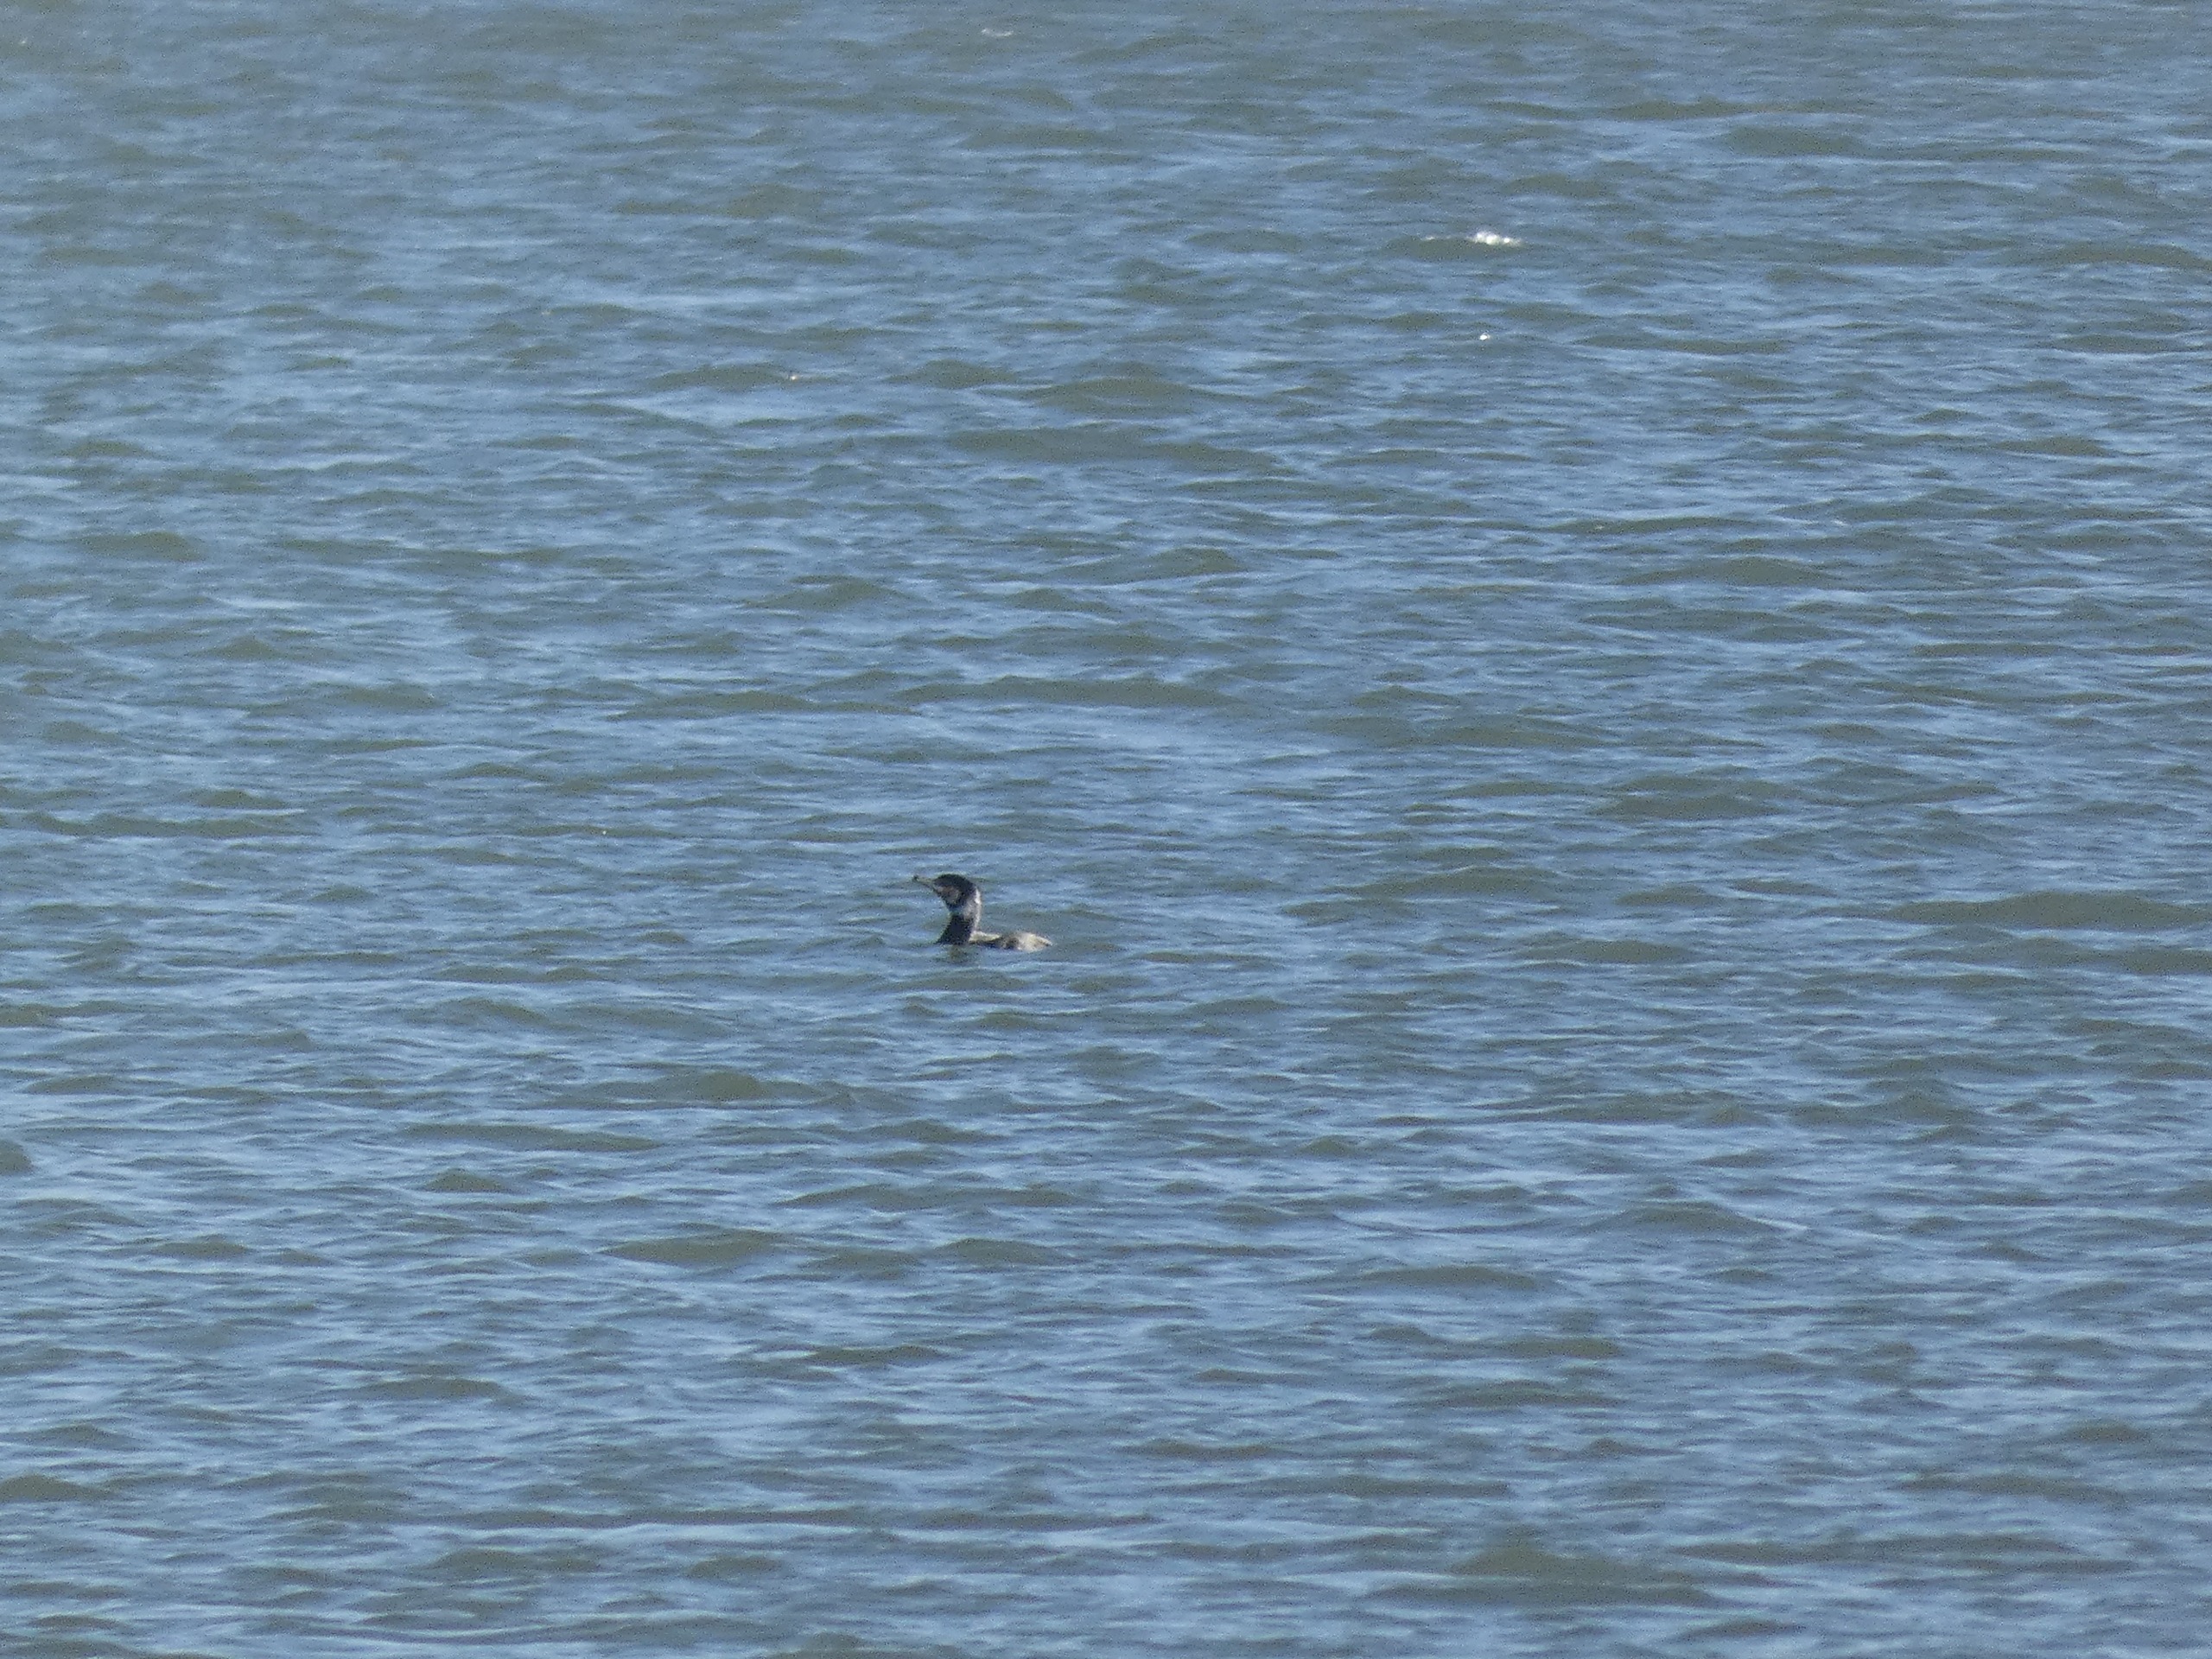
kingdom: Animalia
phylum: Chordata
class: Aves
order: Suliformes
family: Phalacrocoracidae
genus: Phalacrocorax
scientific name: Phalacrocorax carbo
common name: Skarv
